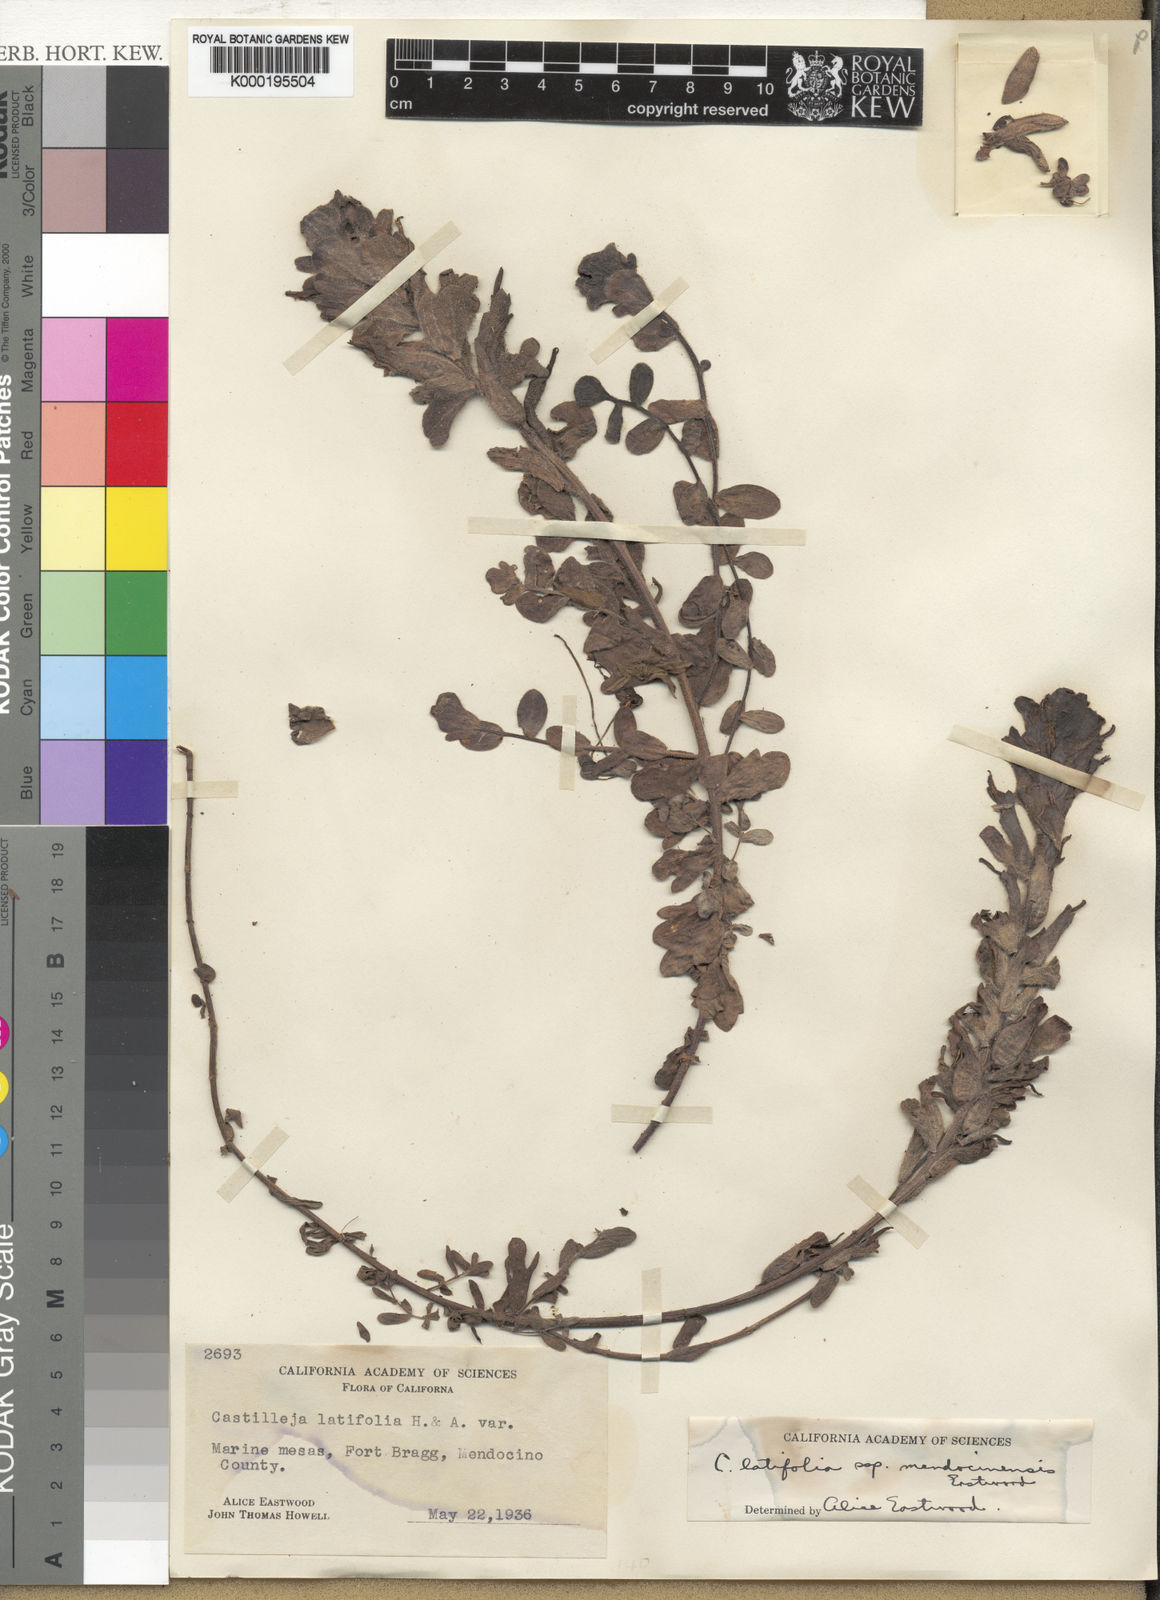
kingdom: Plantae
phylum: Tracheophyta
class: Magnoliopsida
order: Lamiales
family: Orobanchaceae
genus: Castilleja
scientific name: Castilleja mendocinensis
